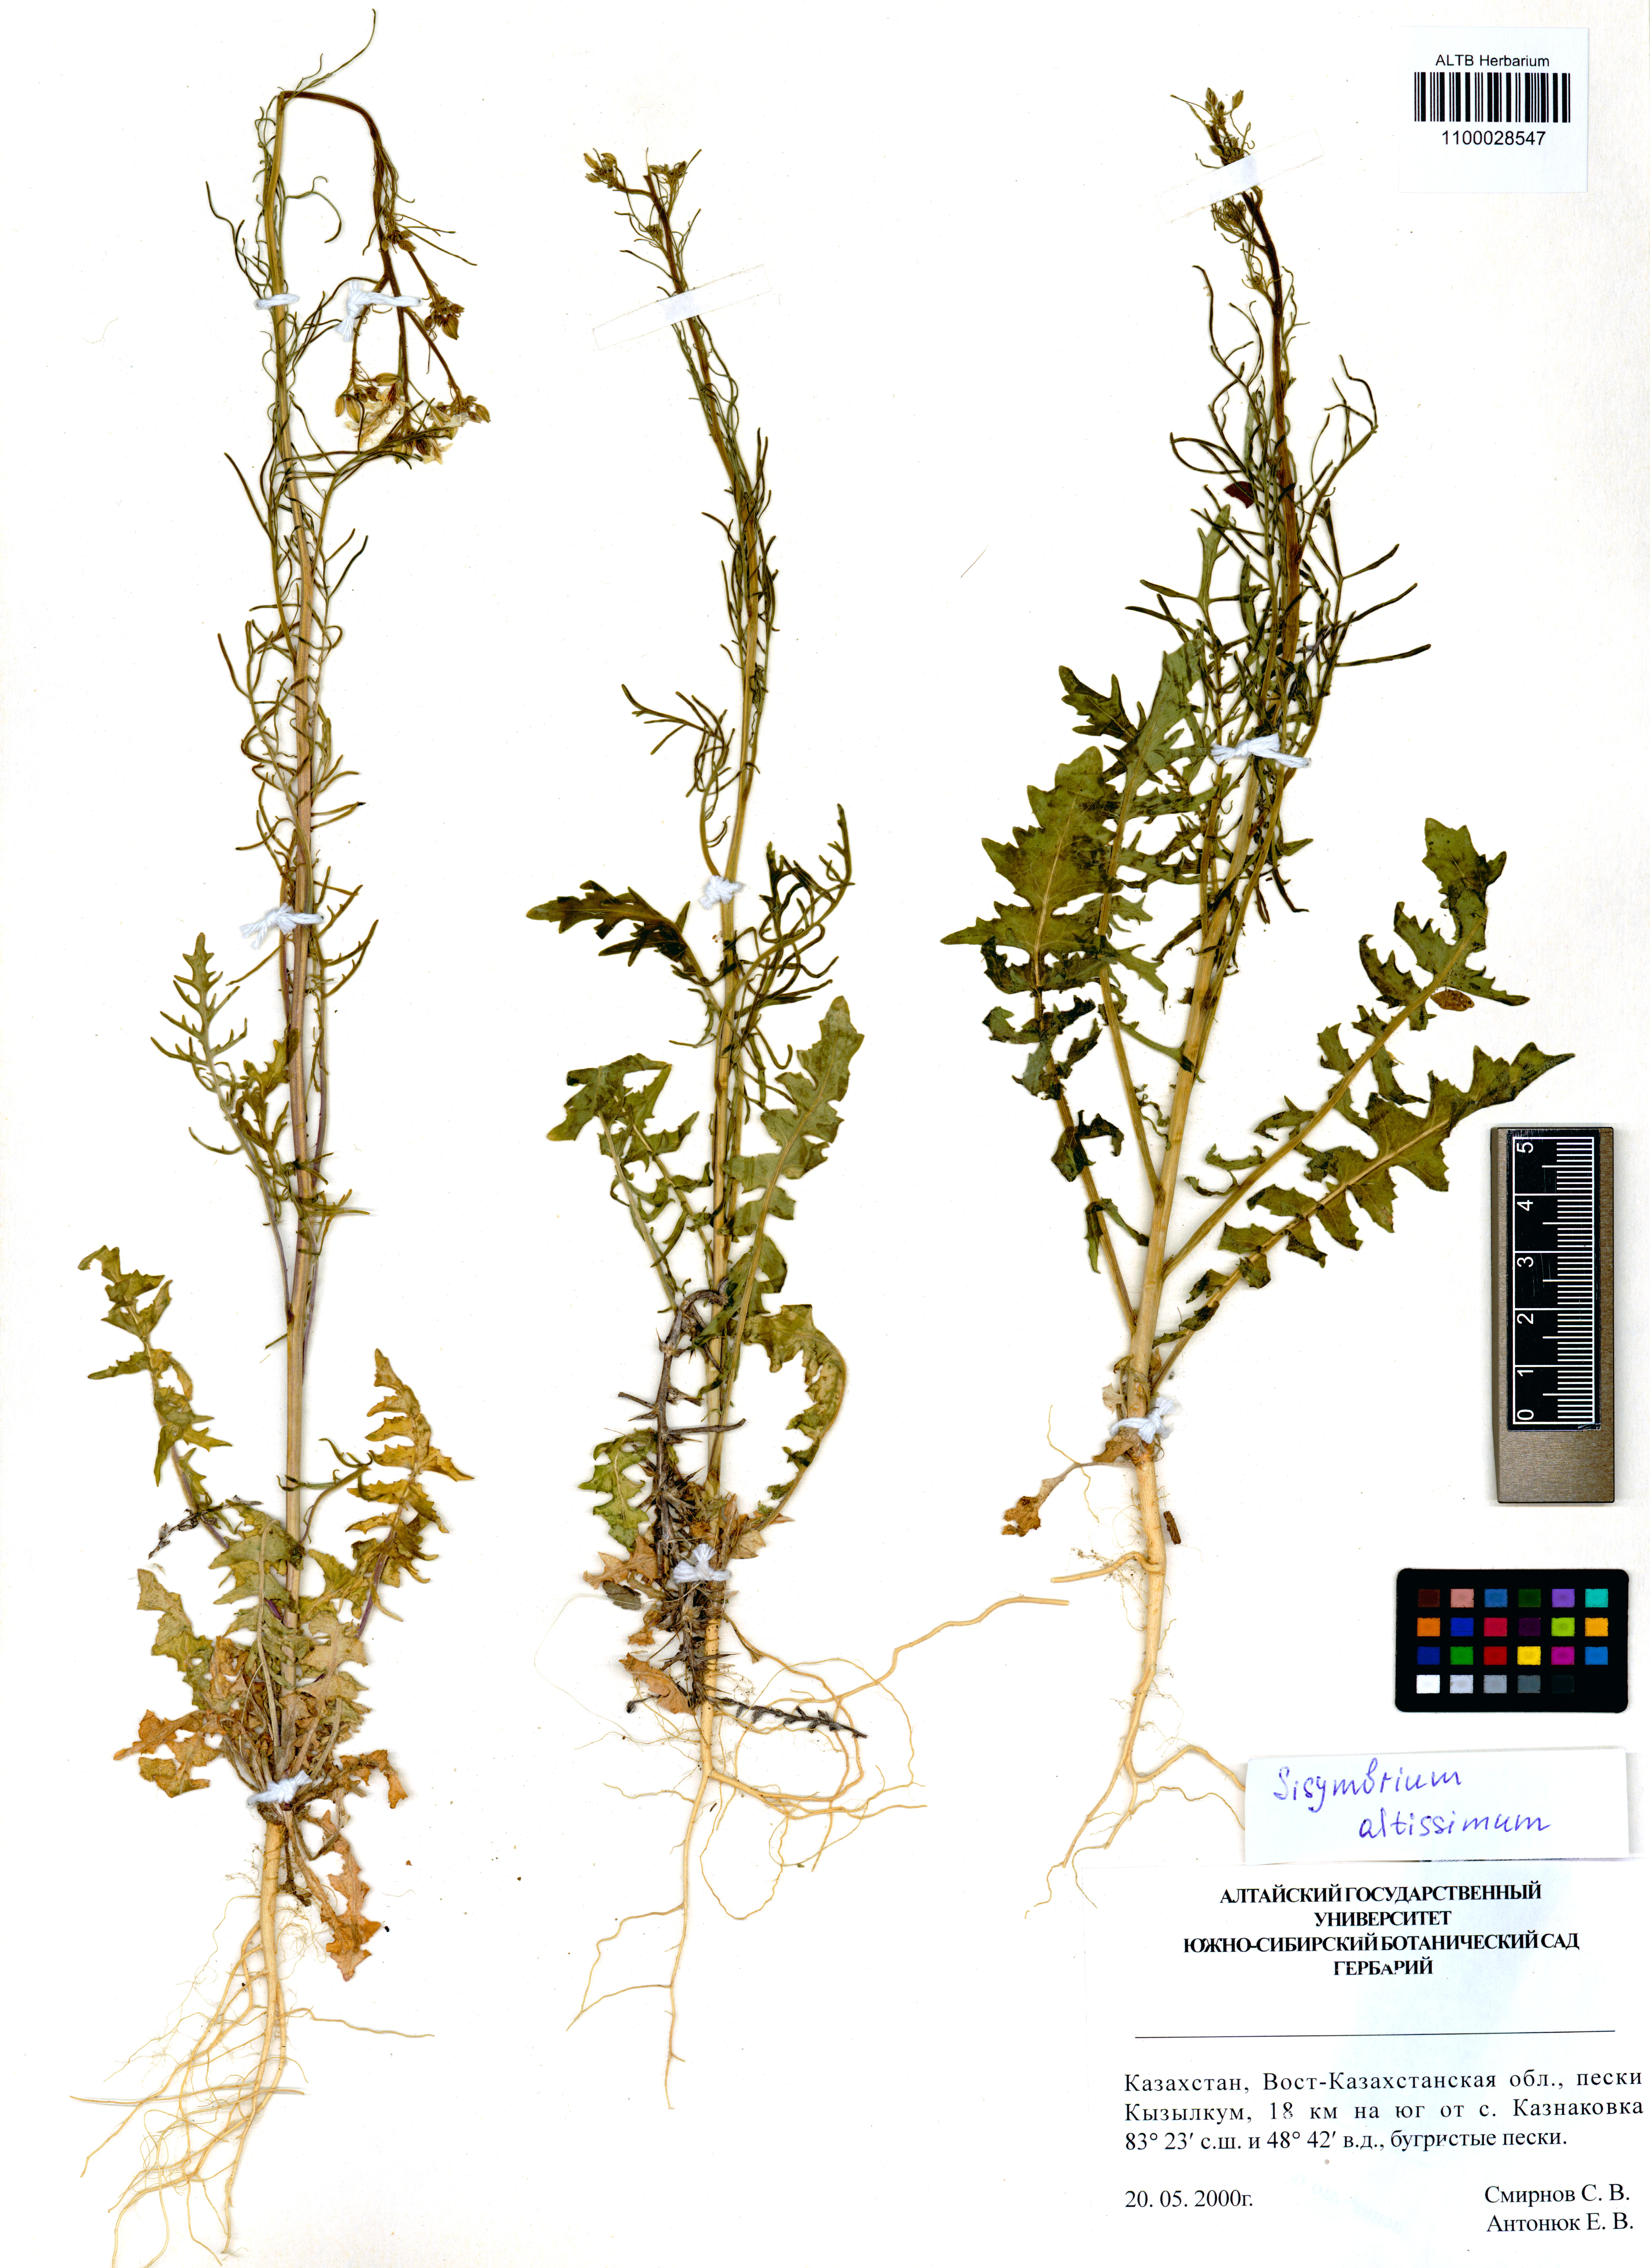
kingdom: Plantae
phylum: Tracheophyta
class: Magnoliopsida
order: Brassicales
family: Brassicaceae
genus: Sisymbrium
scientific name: Sisymbrium altissimum
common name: Tall rocket
